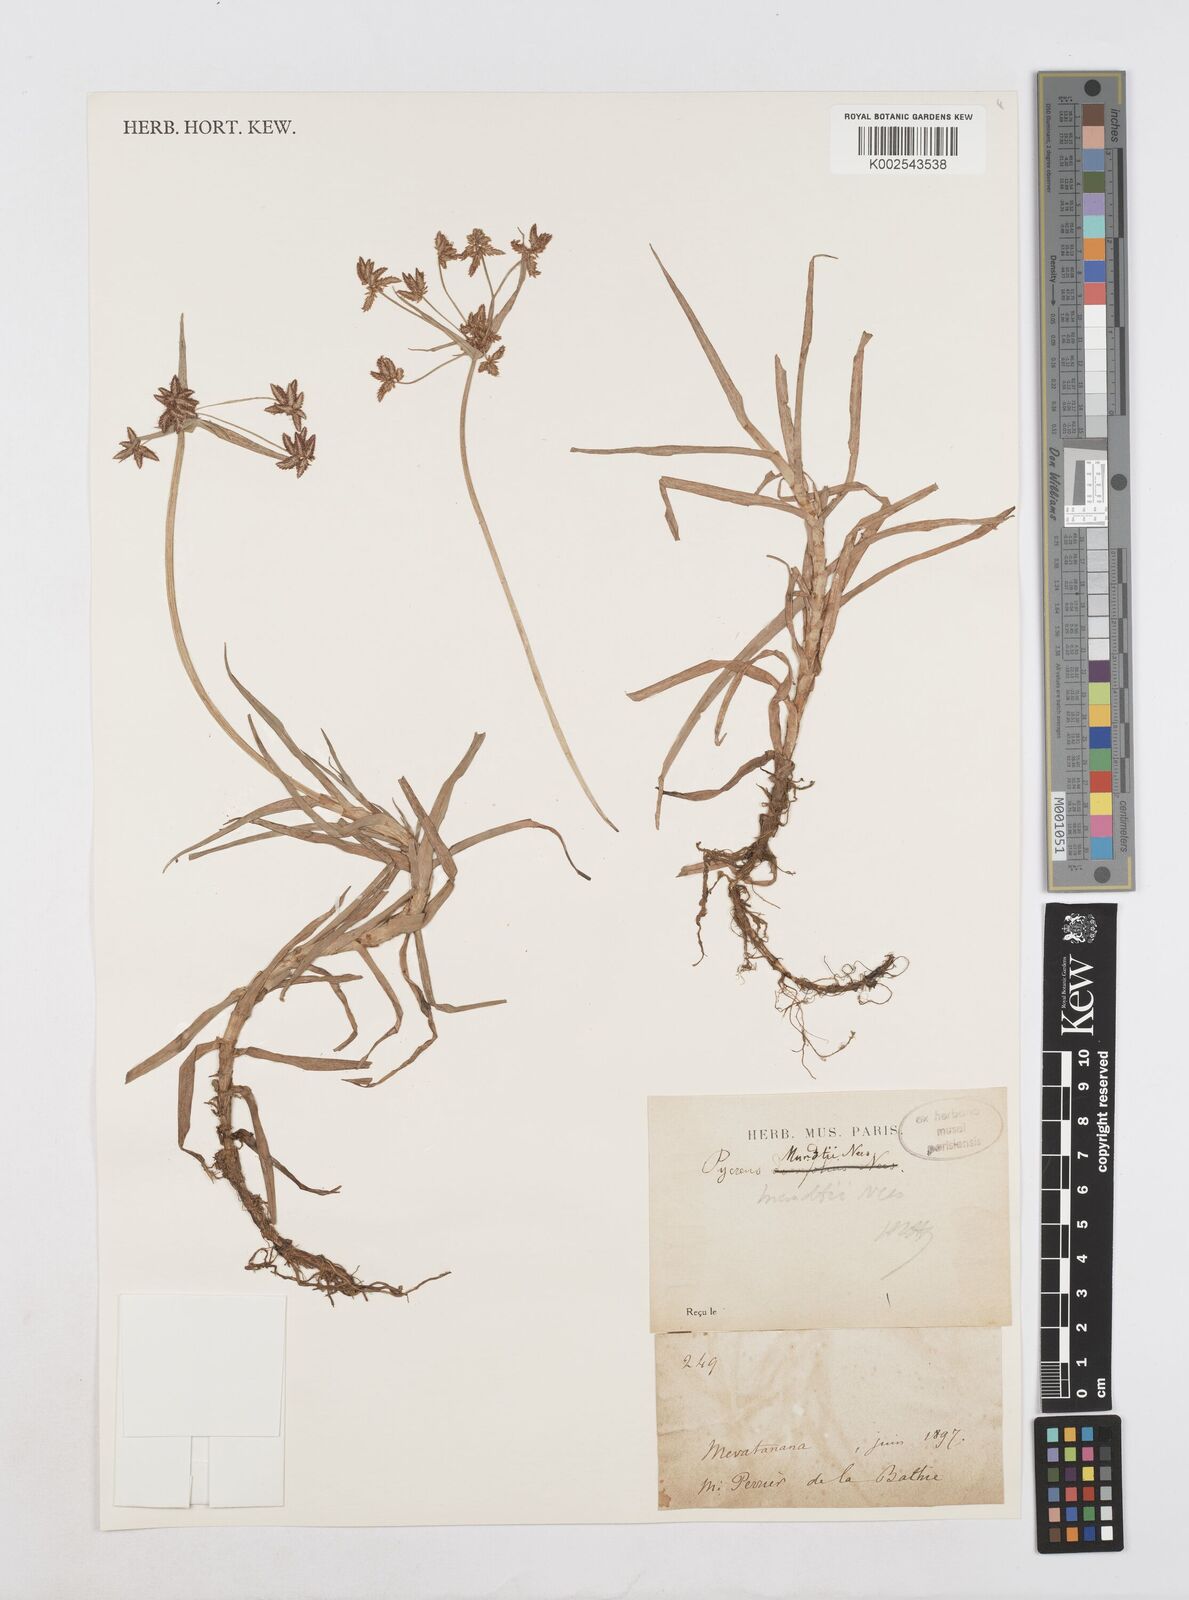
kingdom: Plantae
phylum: Tracheophyta
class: Liliopsida
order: Poales
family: Cyperaceae
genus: Cyperus
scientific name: Cyperus mundii
